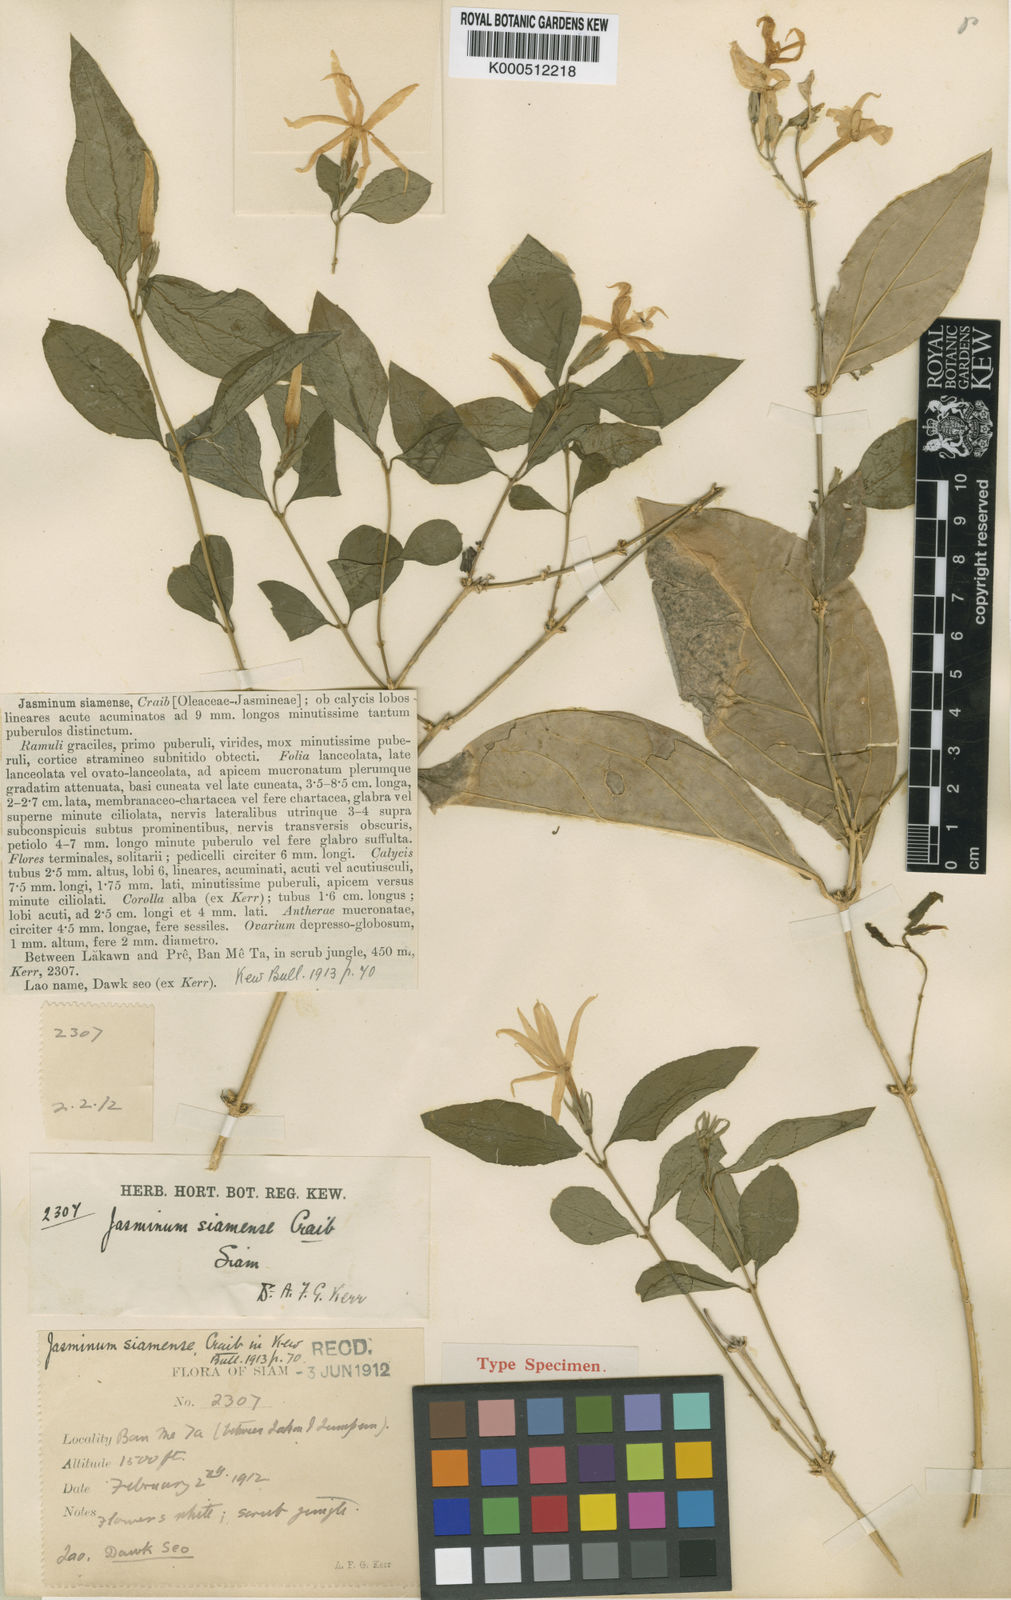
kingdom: Plantae
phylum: Tracheophyta
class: Magnoliopsida
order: Lamiales
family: Oleaceae
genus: Jasminum
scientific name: Jasminum siamense
